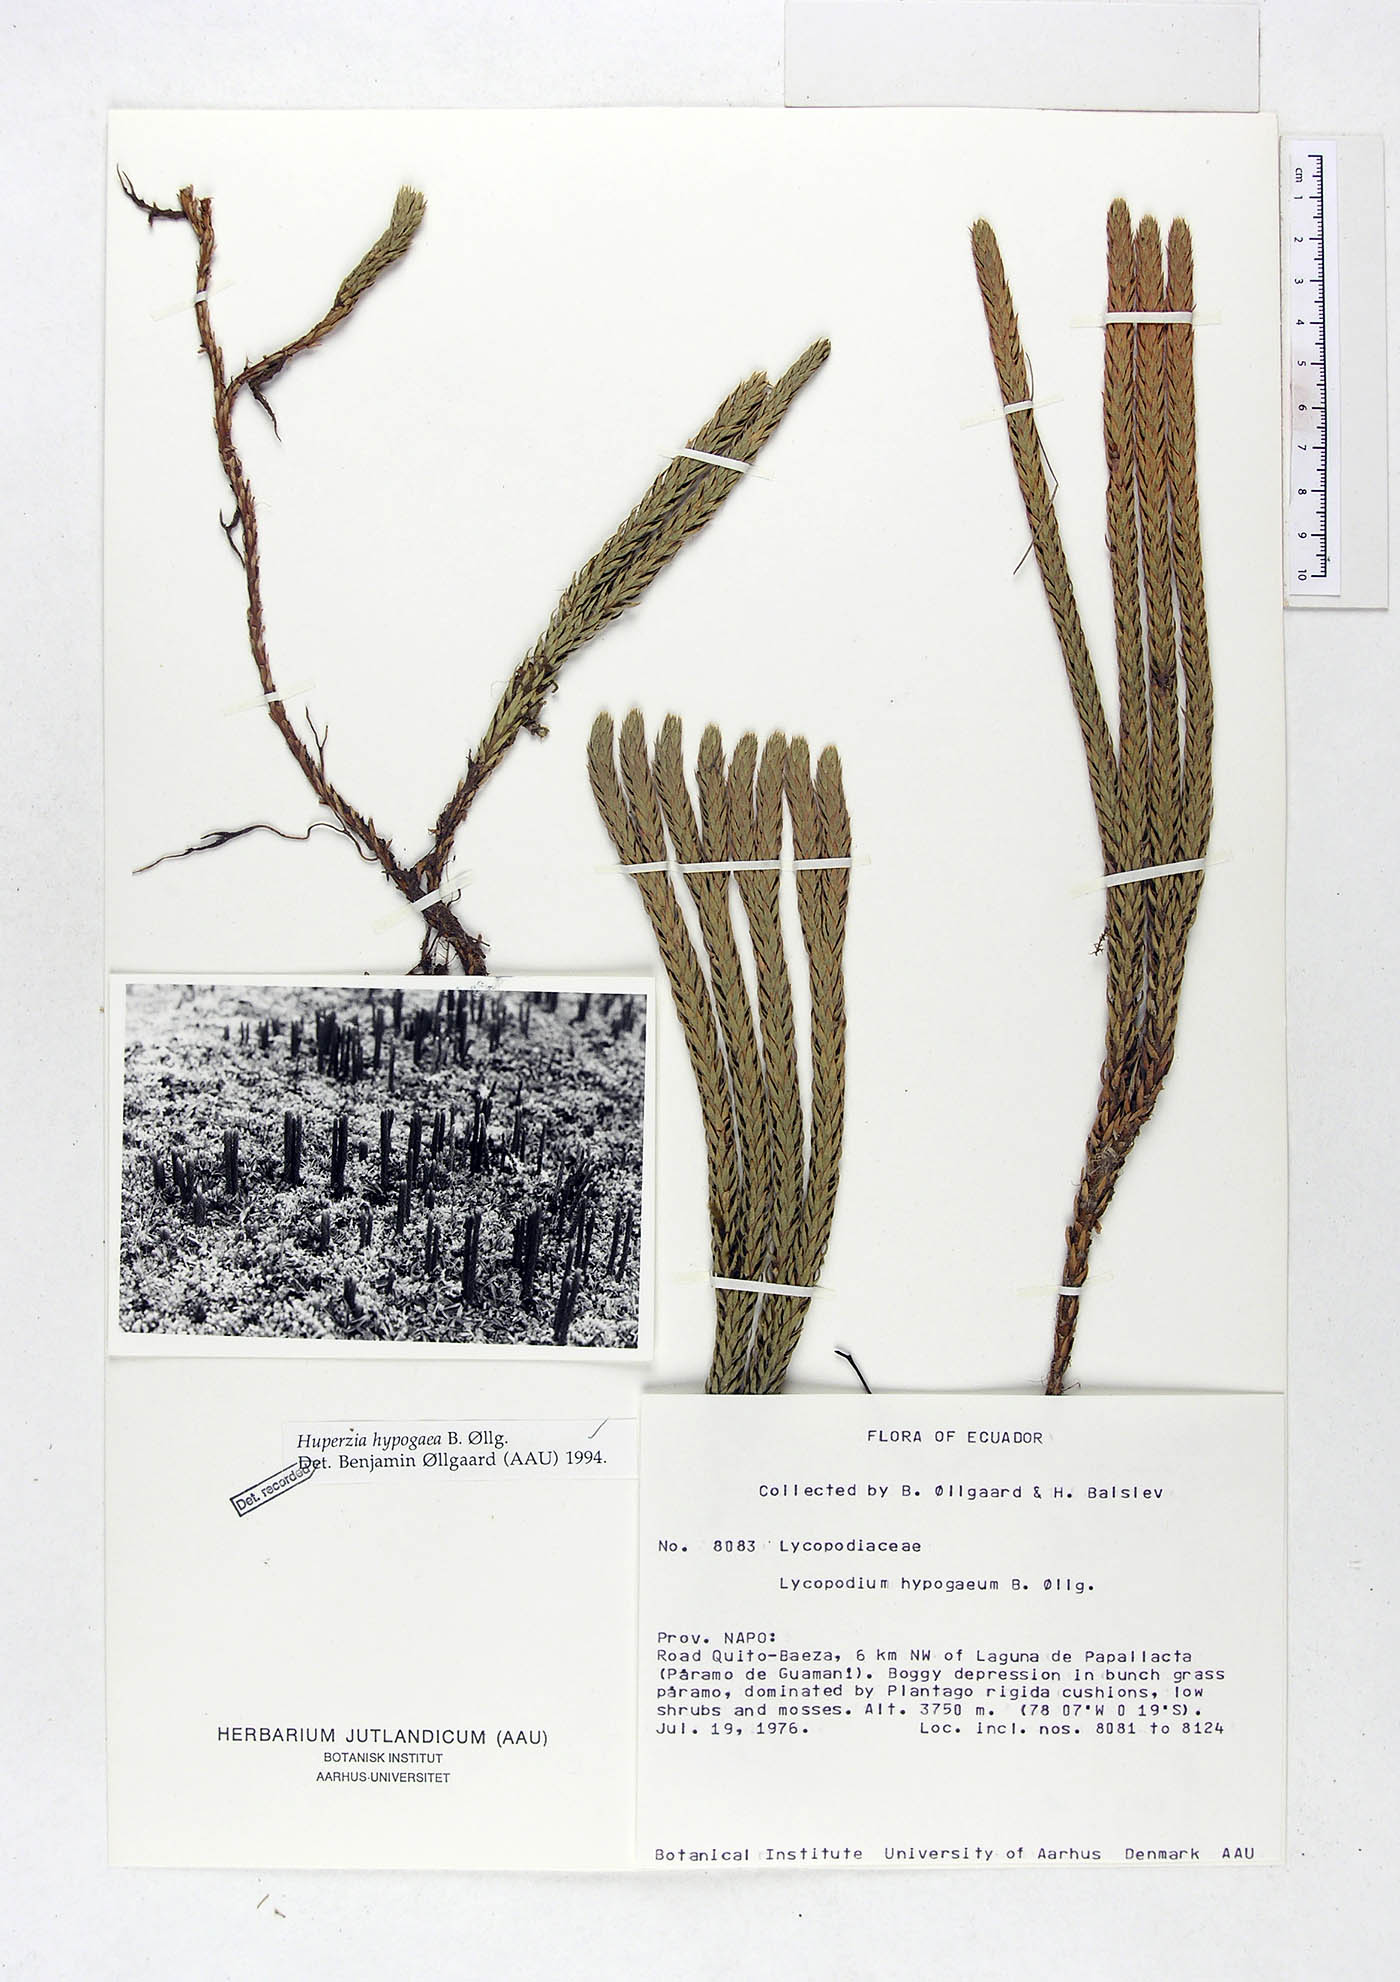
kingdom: Plantae
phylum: Tracheophyta
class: Lycopodiopsida
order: Lycopodiales
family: Lycopodiaceae
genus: Phlegmariurus
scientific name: Phlegmariurus hypogaeus
